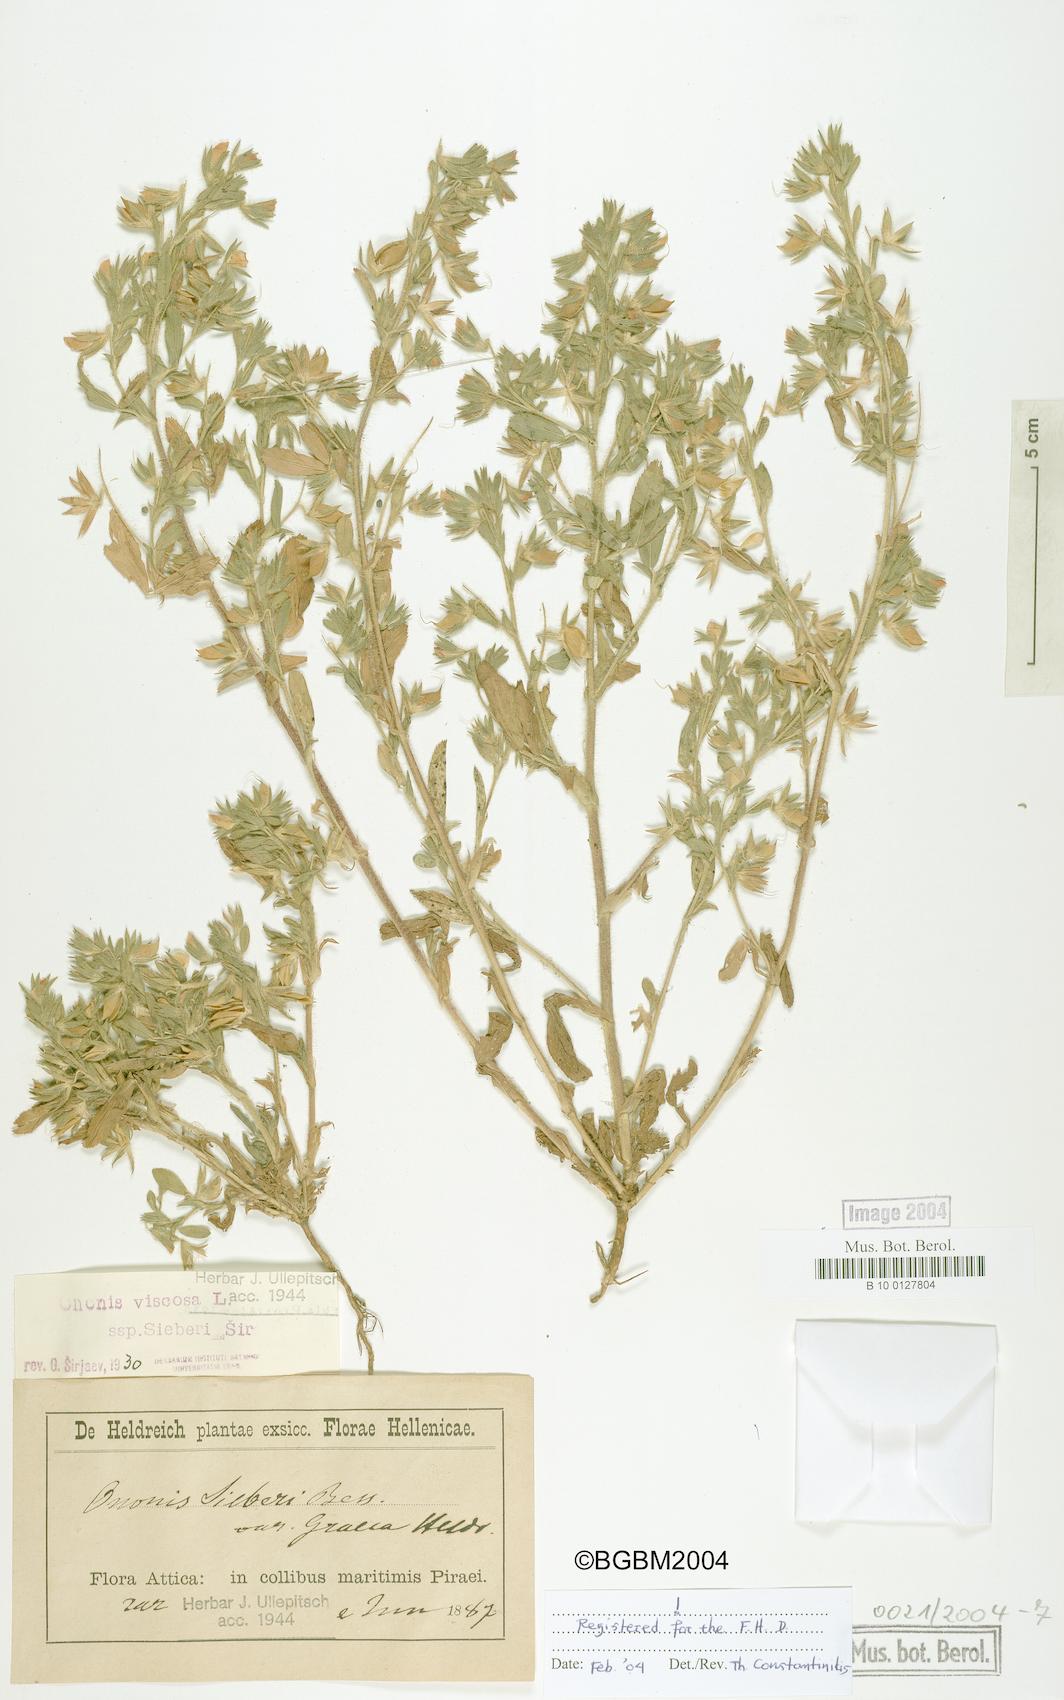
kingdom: Plantae
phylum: Tracheophyta
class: Magnoliopsida
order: Fabales
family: Fabaceae
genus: Ononis
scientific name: Ononis viscosa
